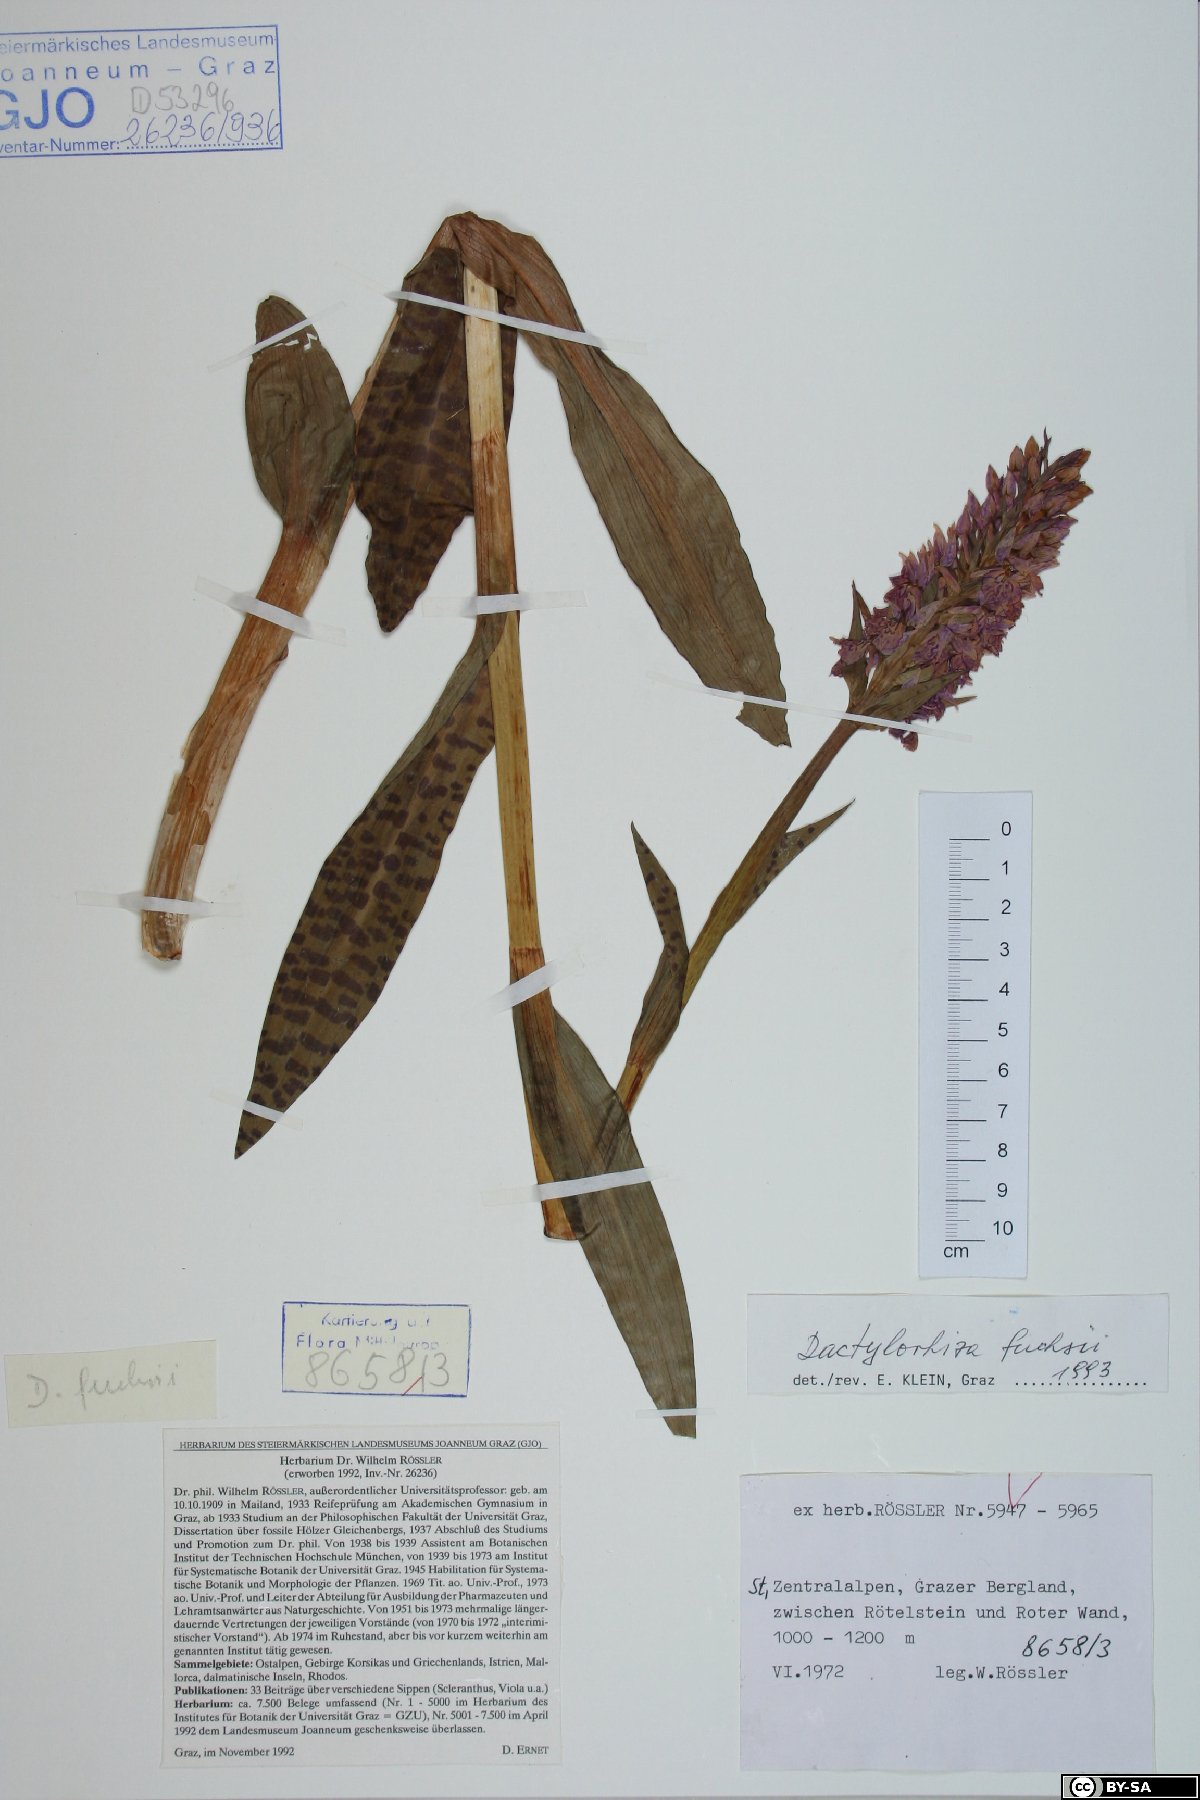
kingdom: Plantae
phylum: Tracheophyta
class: Liliopsida
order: Asparagales
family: Orchidaceae
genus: Dactylorhiza
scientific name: Dactylorhiza maculata
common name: Heath spotted-orchid
